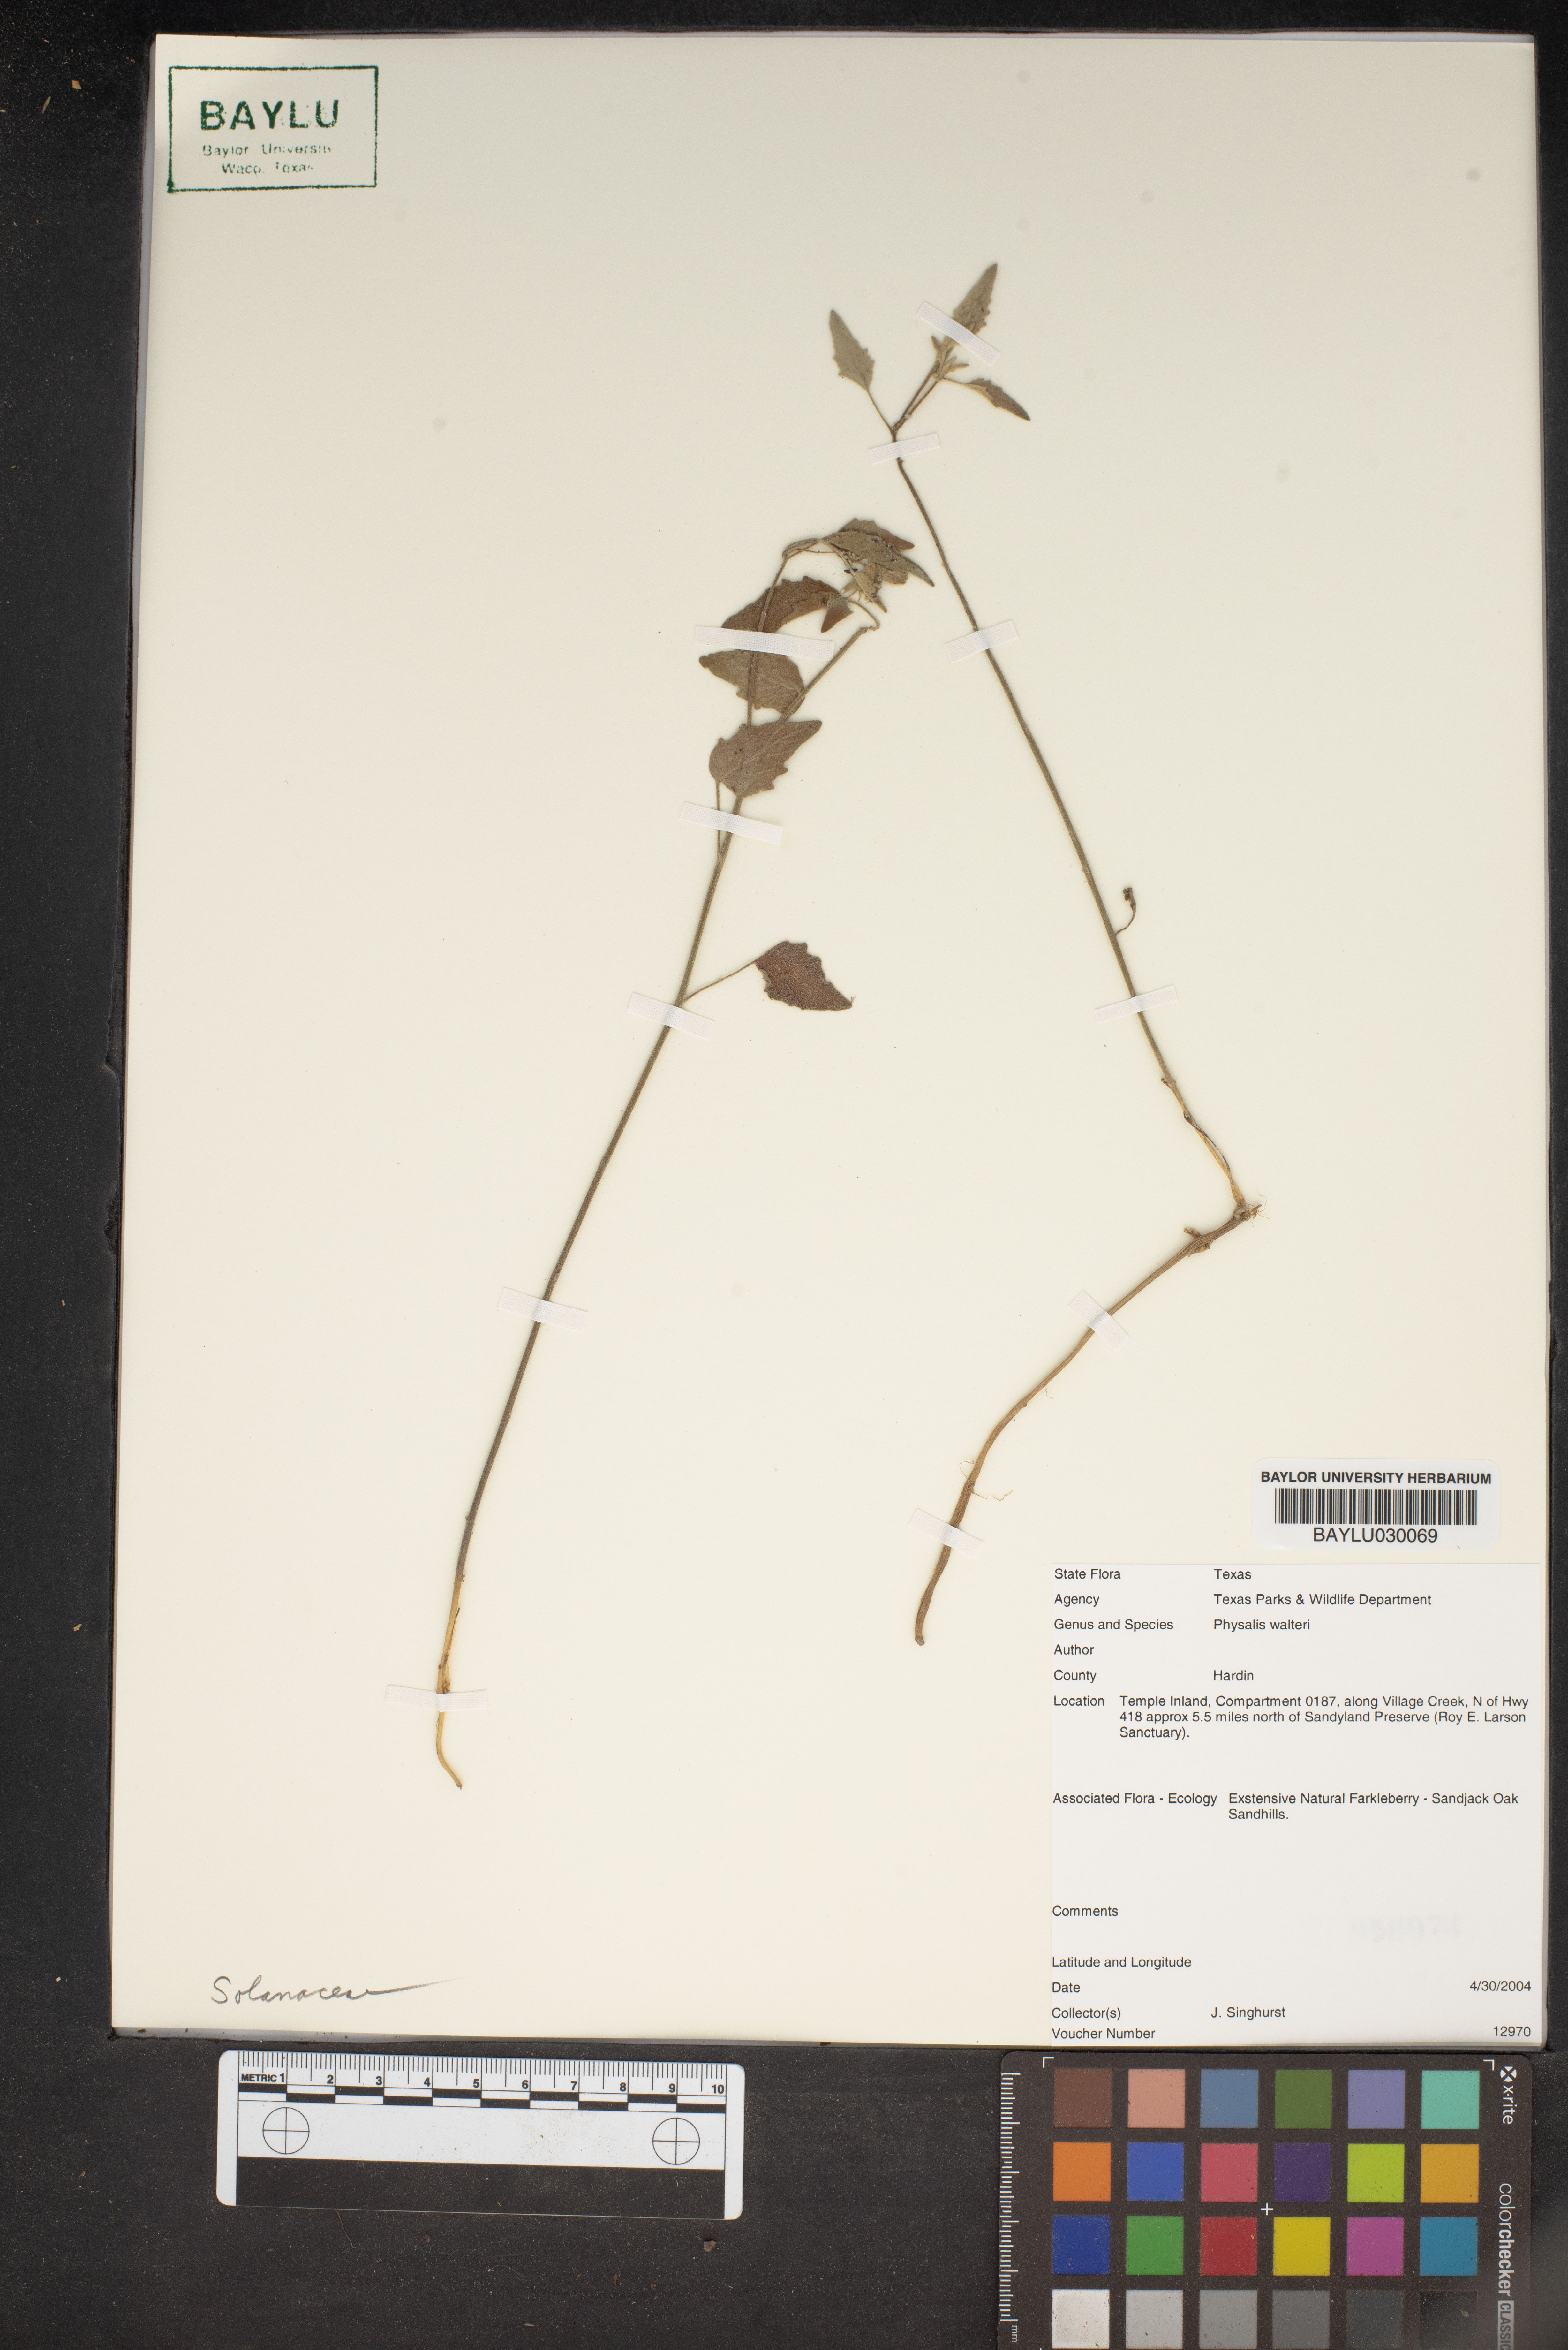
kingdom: Plantae
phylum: Tracheophyta
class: Magnoliopsida
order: Solanales
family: Solanaceae
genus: Physalis
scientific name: Physalis walteri
